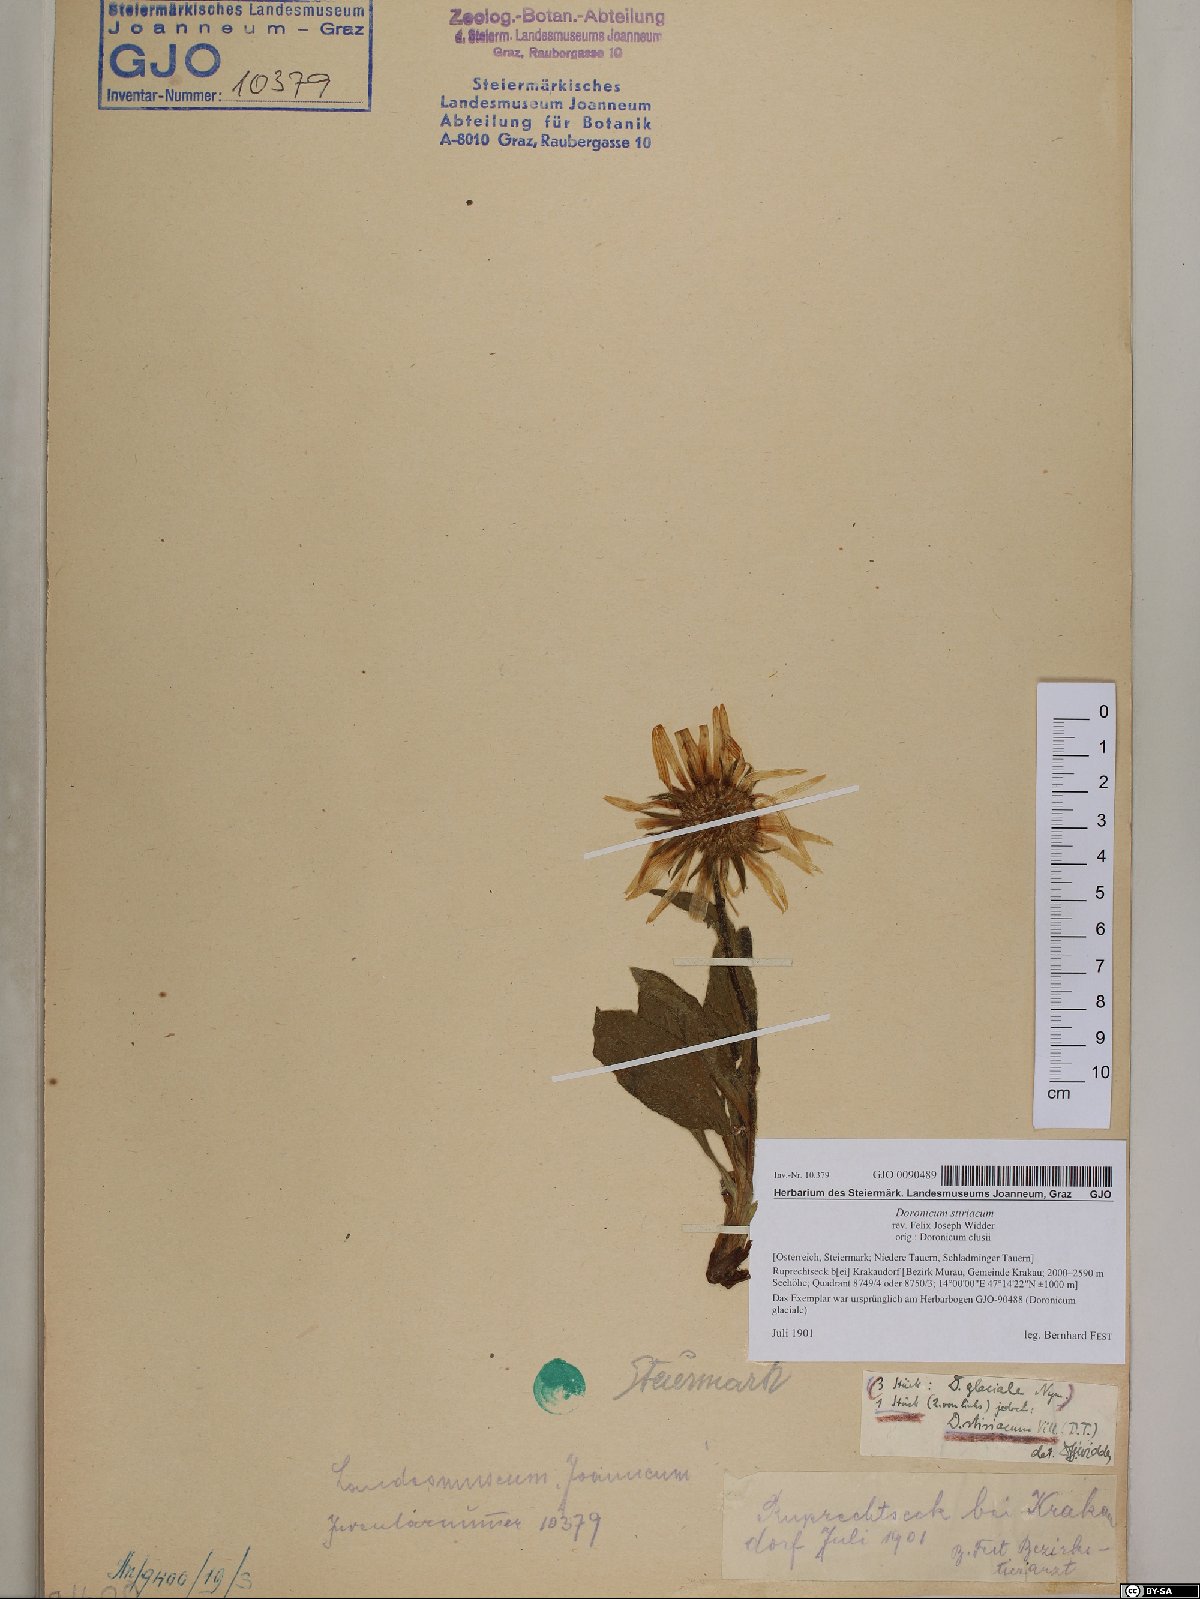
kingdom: Plantae
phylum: Tracheophyta
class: Magnoliopsida
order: Asterales
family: Asteraceae
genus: Doronicum
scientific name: Doronicum clusii
